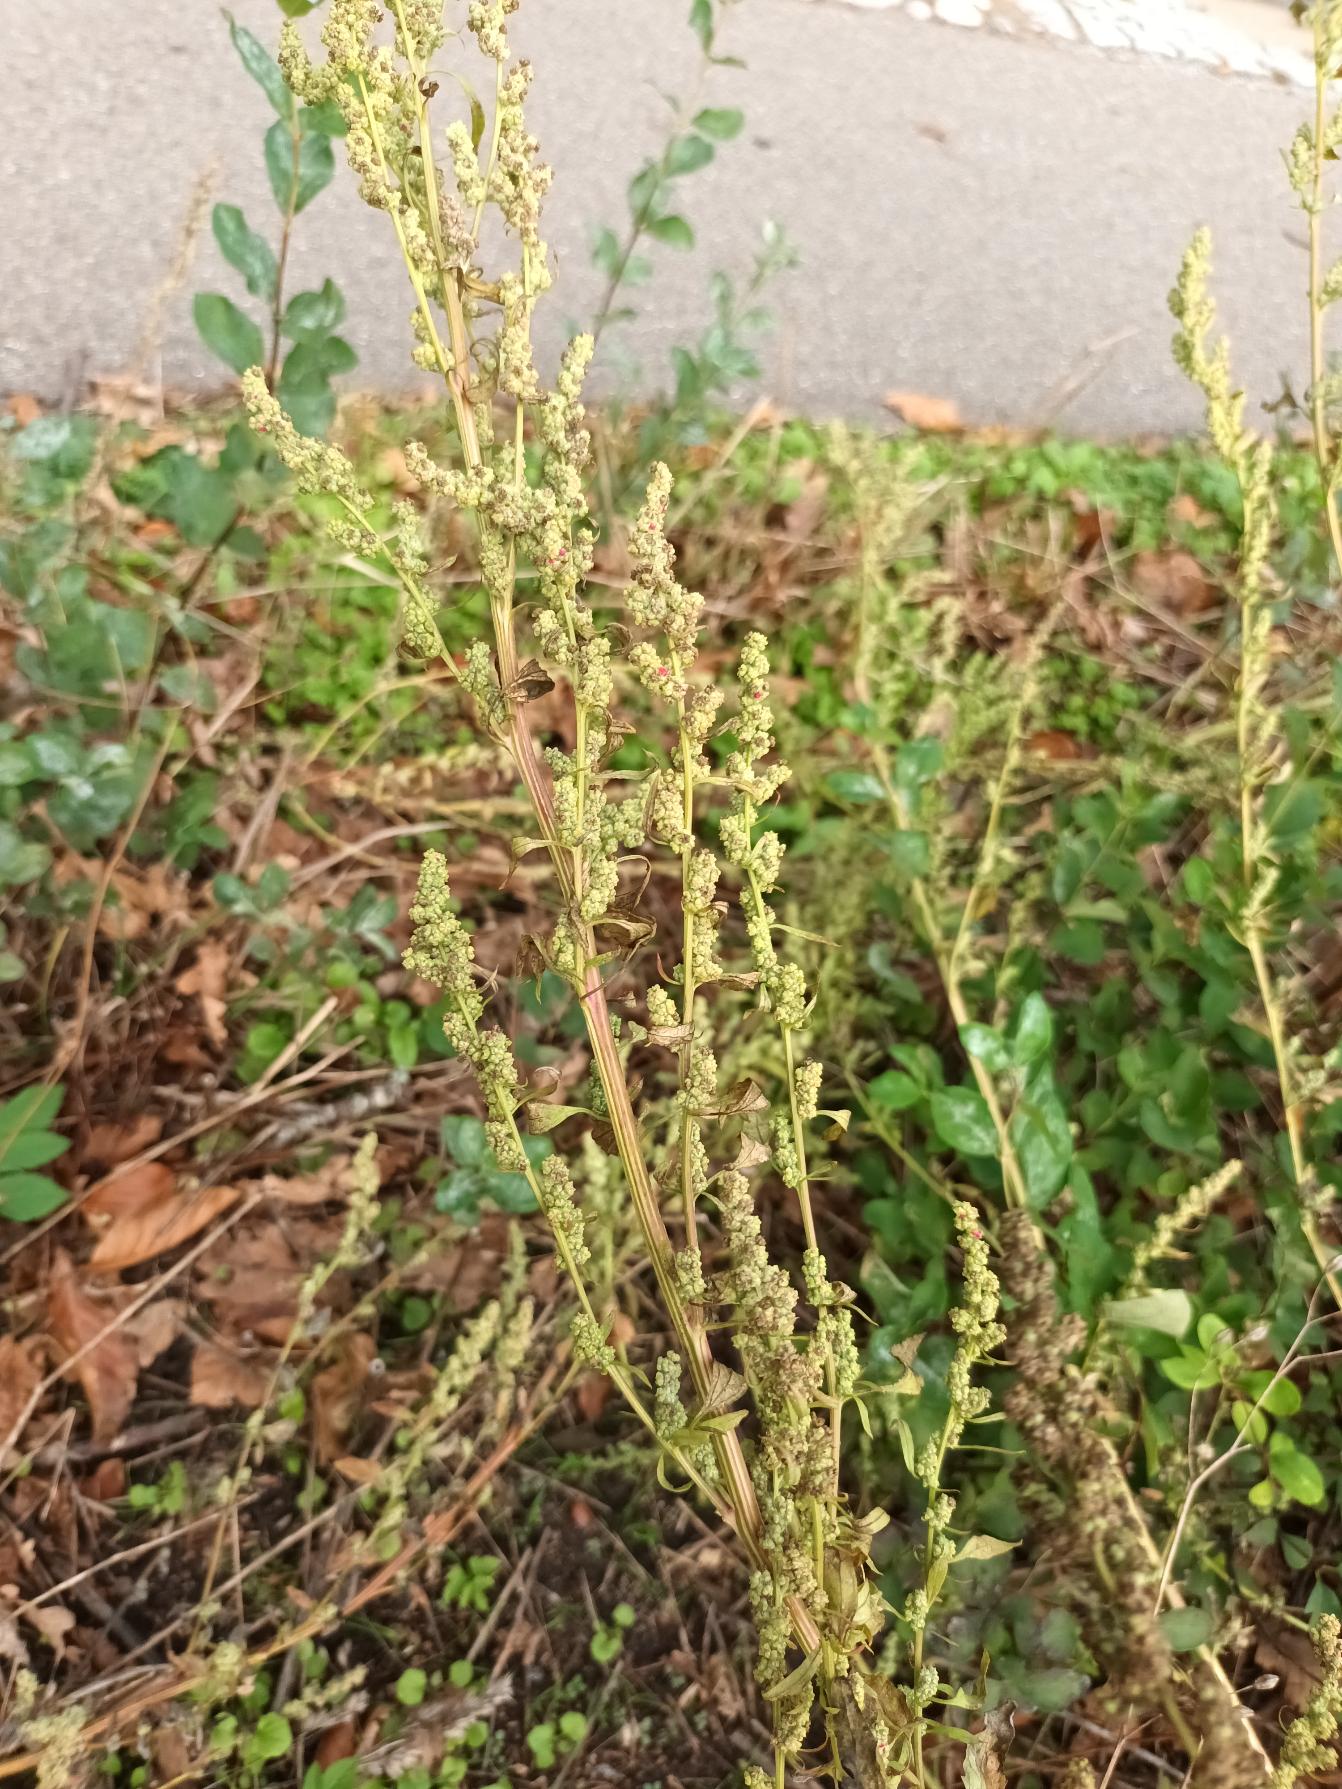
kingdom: Plantae
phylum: Tracheophyta
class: Magnoliopsida
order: Caryophyllales
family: Amaranthaceae
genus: Chenopodium
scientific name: Chenopodium album
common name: Hvidmelet gåsefod
